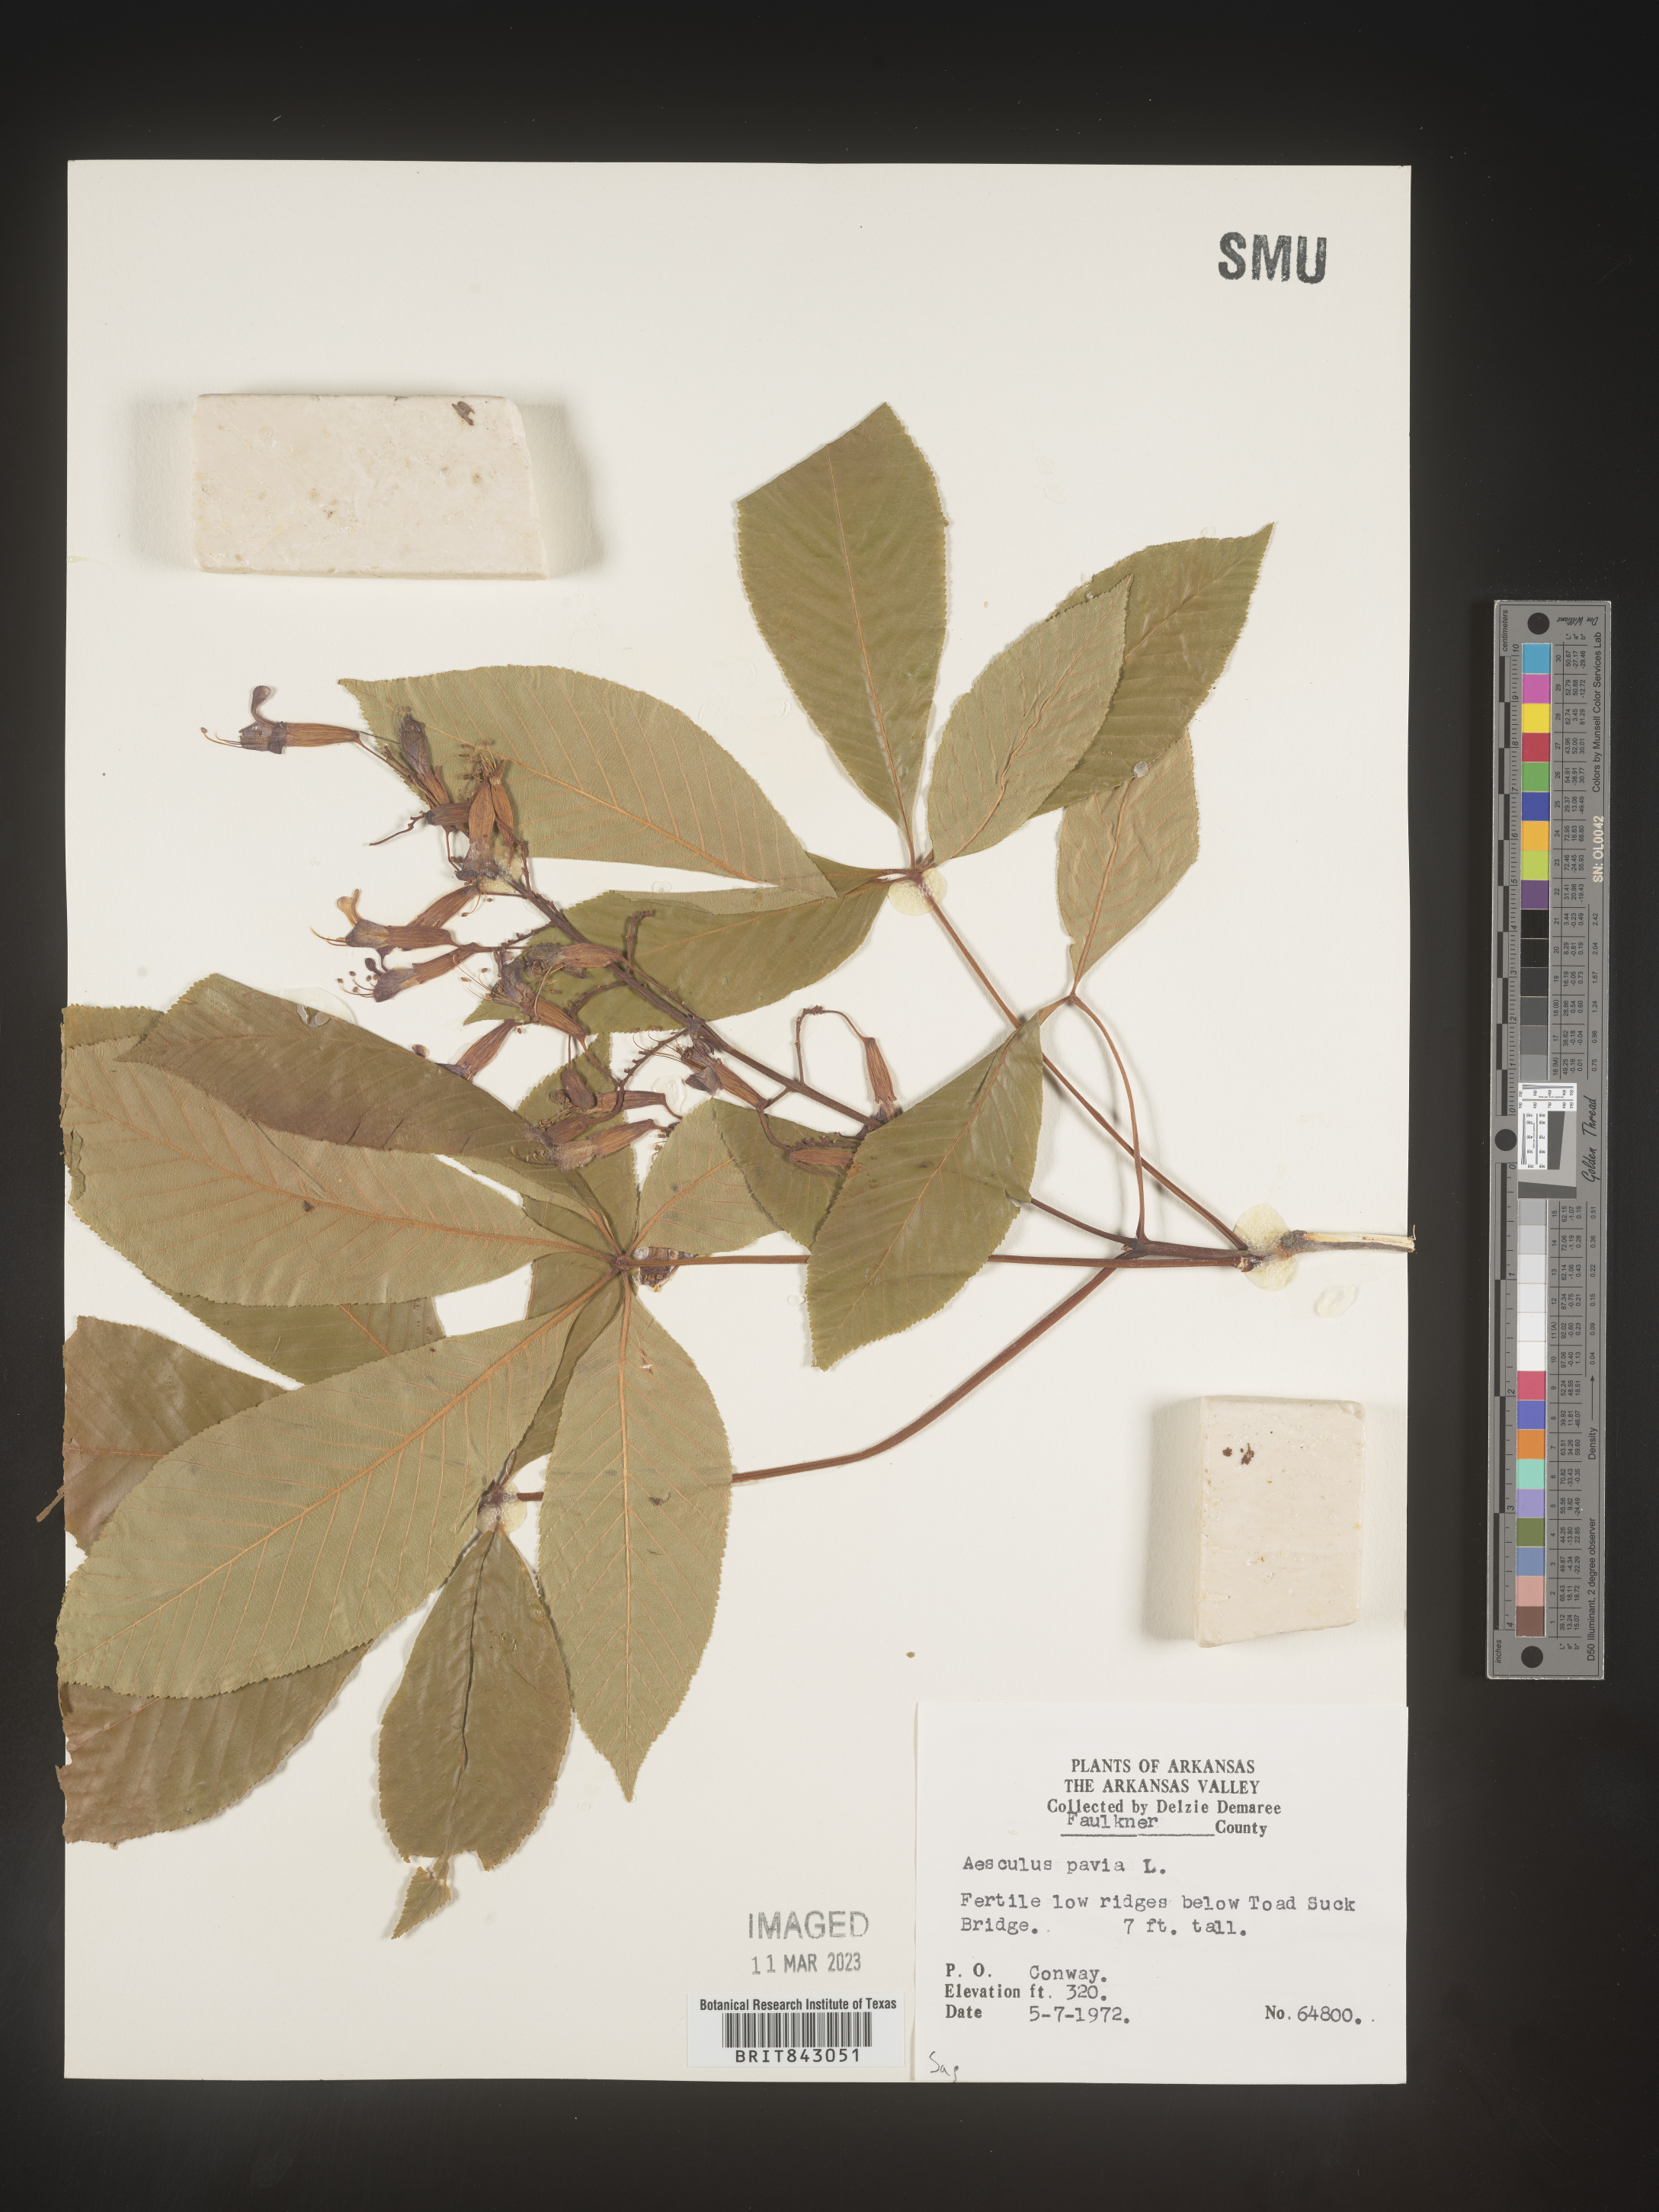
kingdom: Plantae
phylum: Tracheophyta
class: Magnoliopsida
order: Sapindales
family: Sapindaceae
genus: Aesculus
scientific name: Aesculus pavia
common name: Red buckeye
